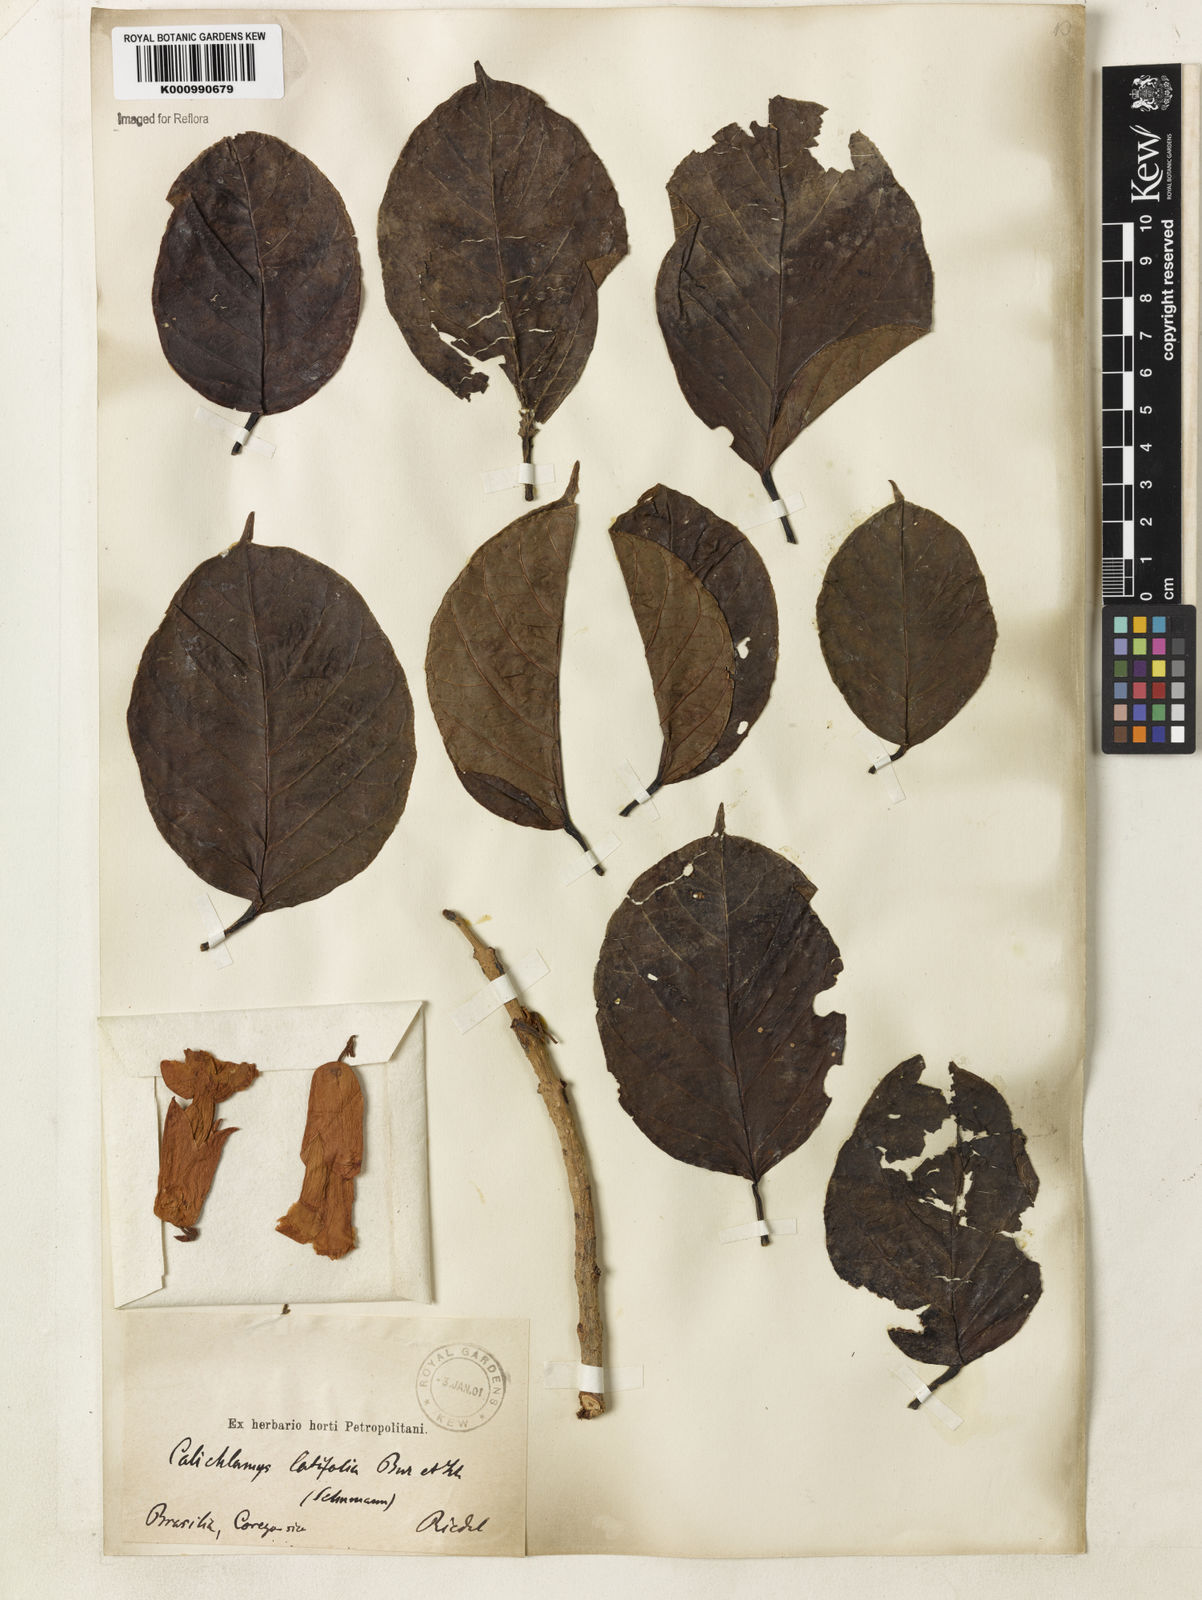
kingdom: Plantae
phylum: Tracheophyta
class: Magnoliopsida
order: Lamiales
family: Bignoniaceae
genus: Callichlamys
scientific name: Callichlamys latifolia
